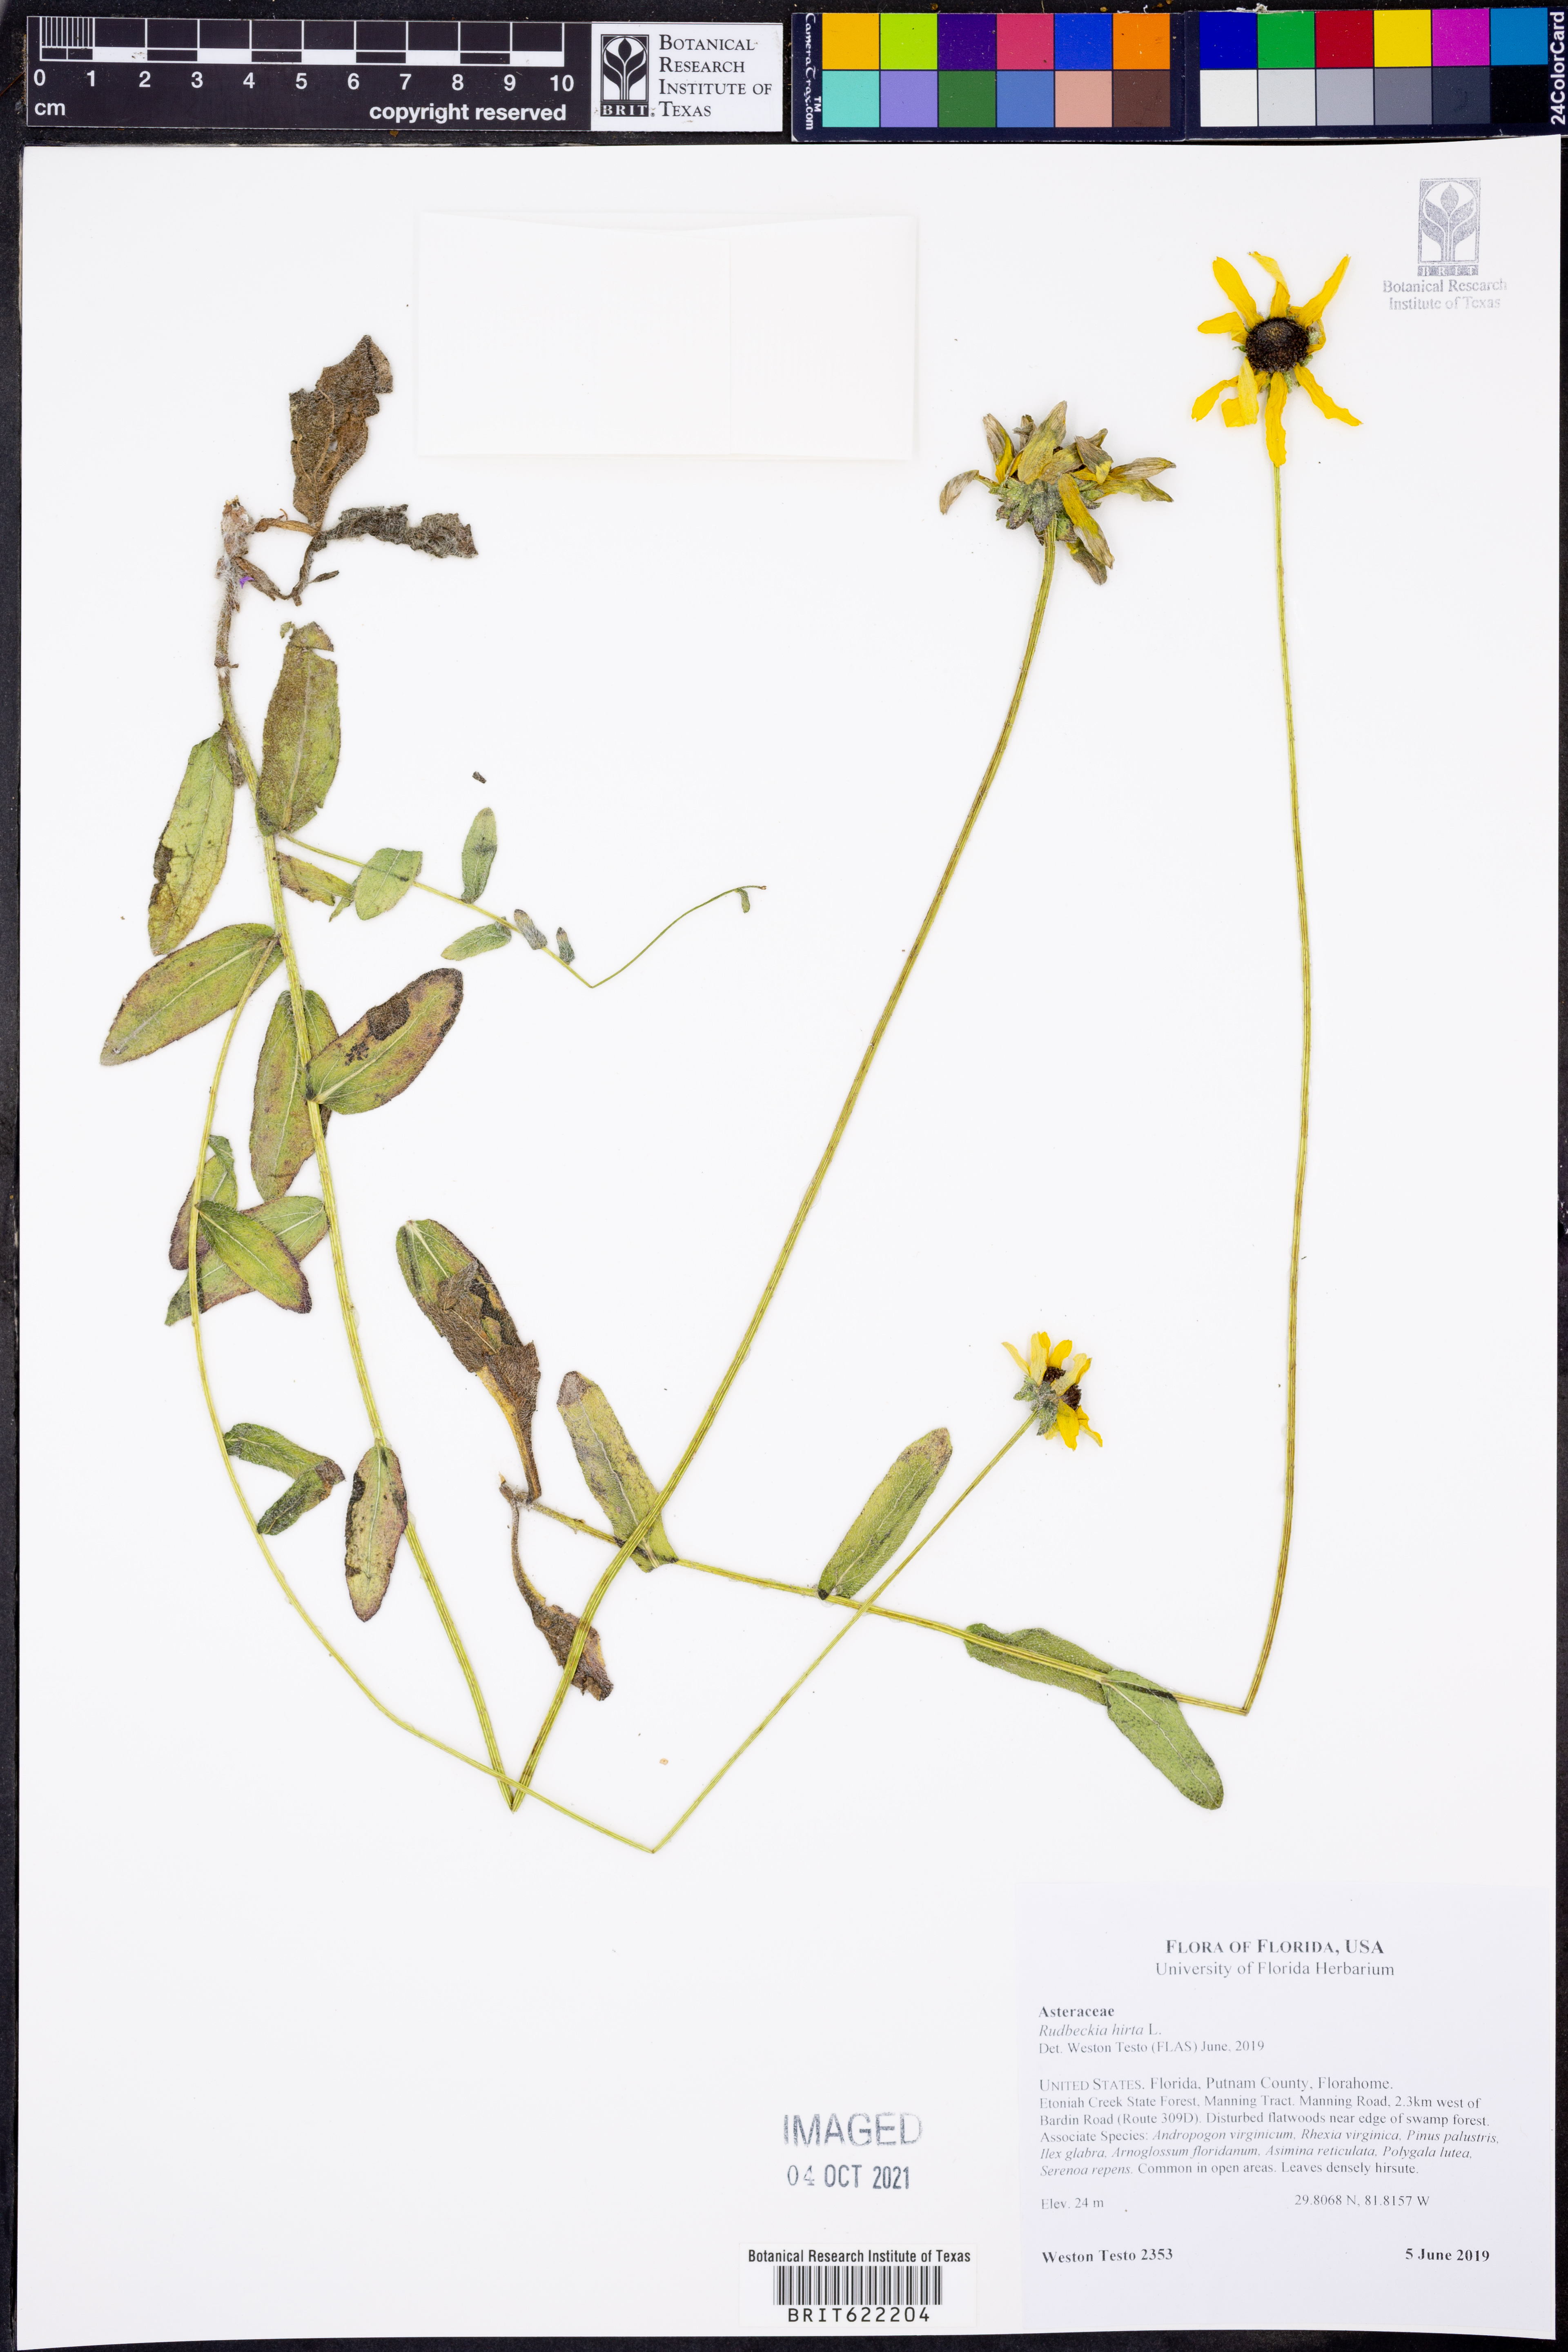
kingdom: Plantae
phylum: Tracheophyta
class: Magnoliopsida
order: Asterales
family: Asteraceae
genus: Rudbeckia
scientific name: Rudbeckia hirta
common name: Black-eyed-susan
